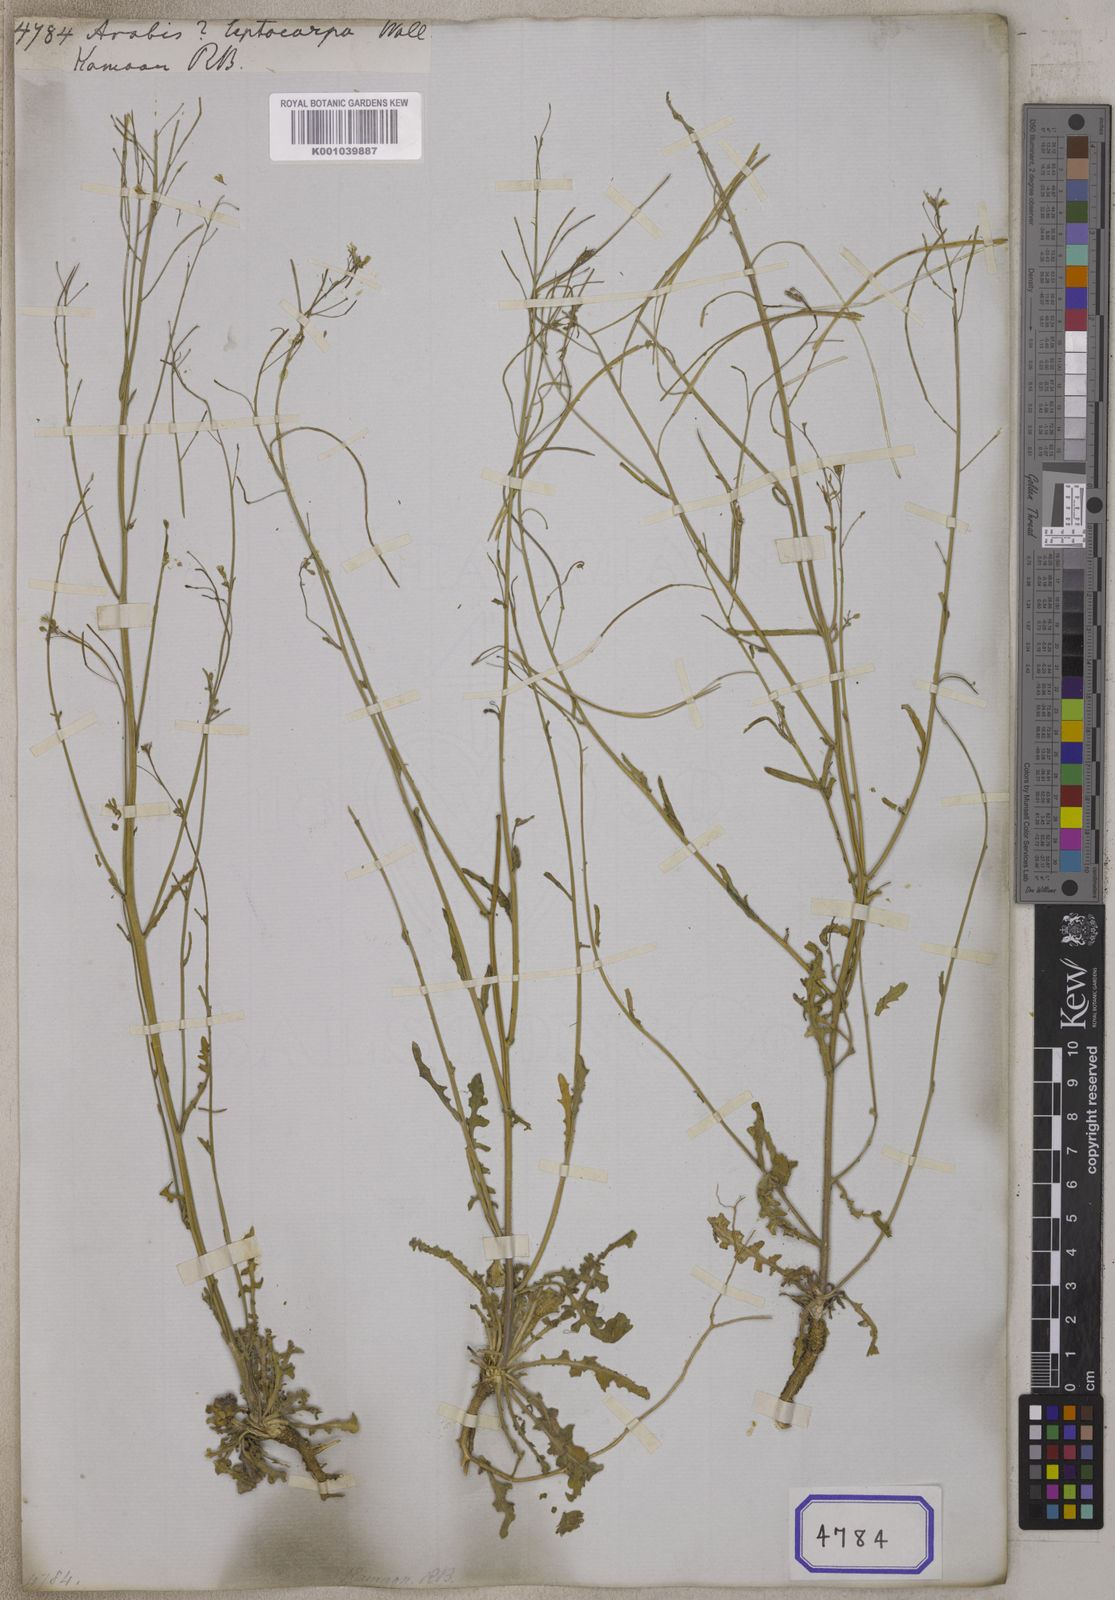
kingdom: Plantae
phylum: Tracheophyta
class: Magnoliopsida
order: Brassicales
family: Brassicaceae
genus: Crucihimalaya
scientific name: Crucihimalaya wallichii
